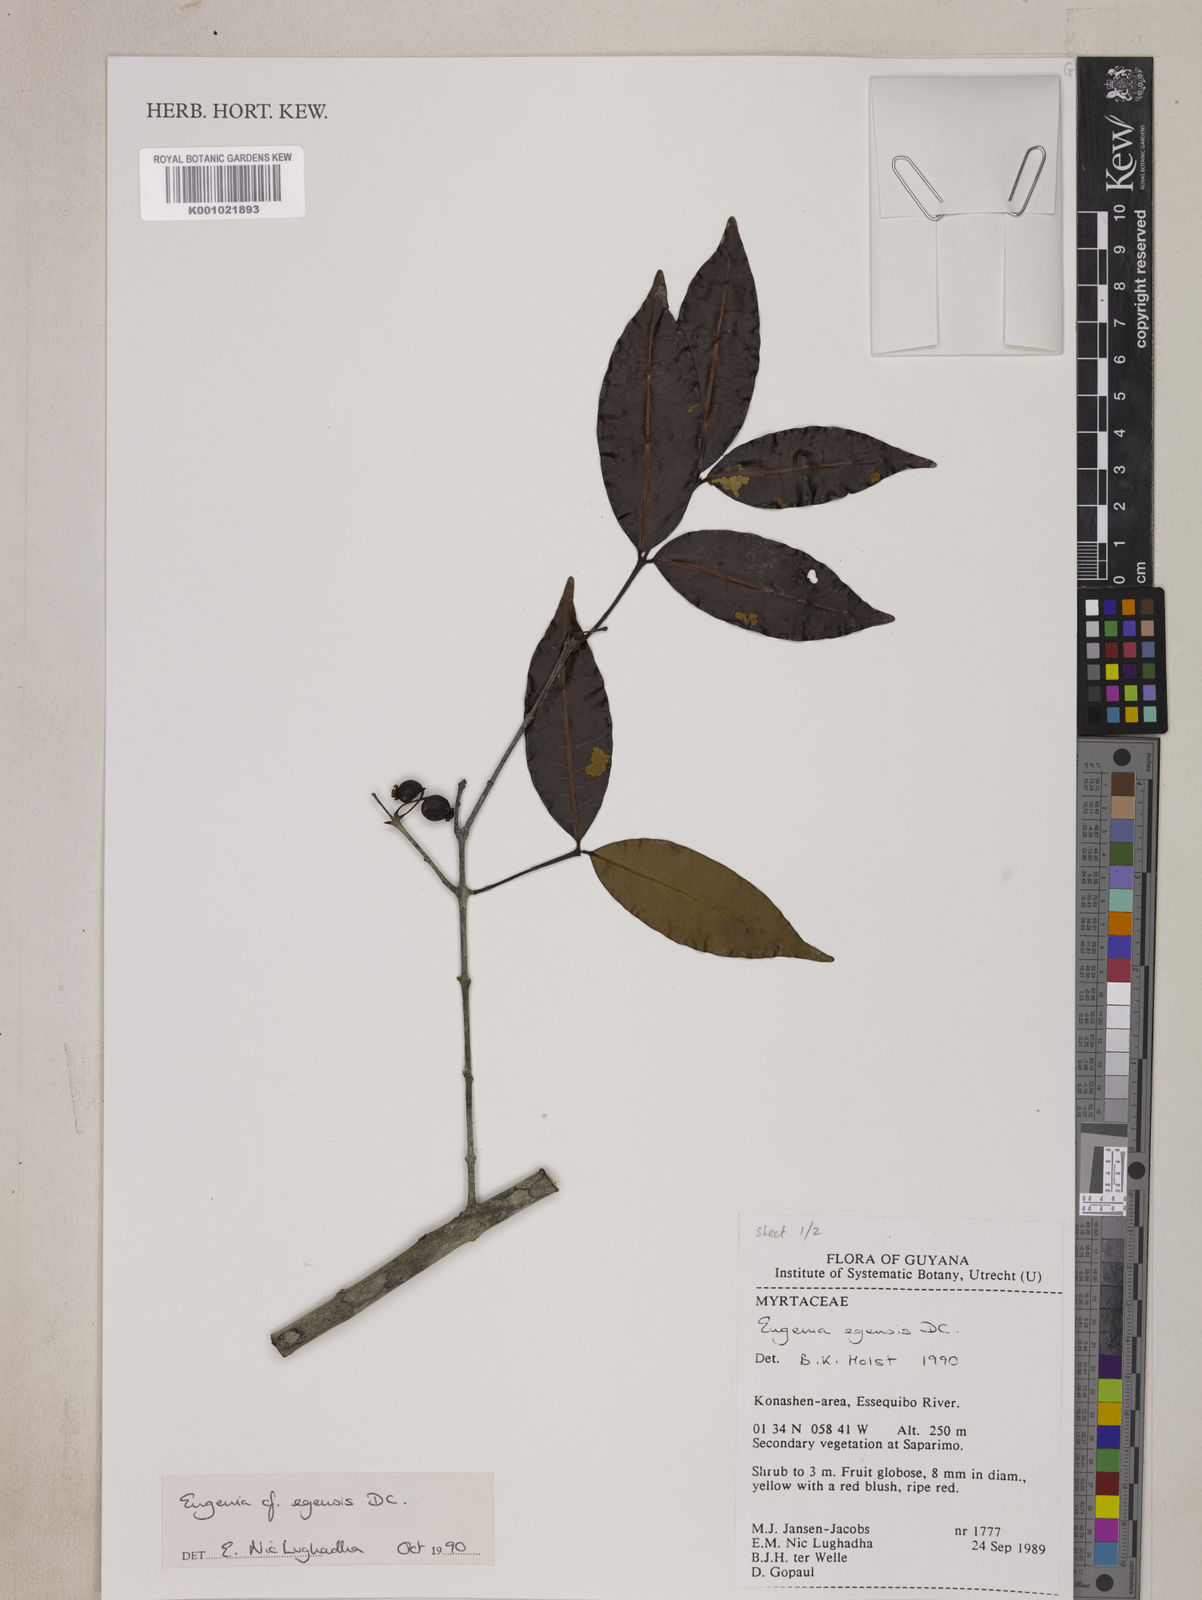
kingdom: Plantae
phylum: Tracheophyta
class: Magnoliopsida
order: Myrtales
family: Myrtaceae
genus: Eugenia
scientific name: Eugenia egensis
